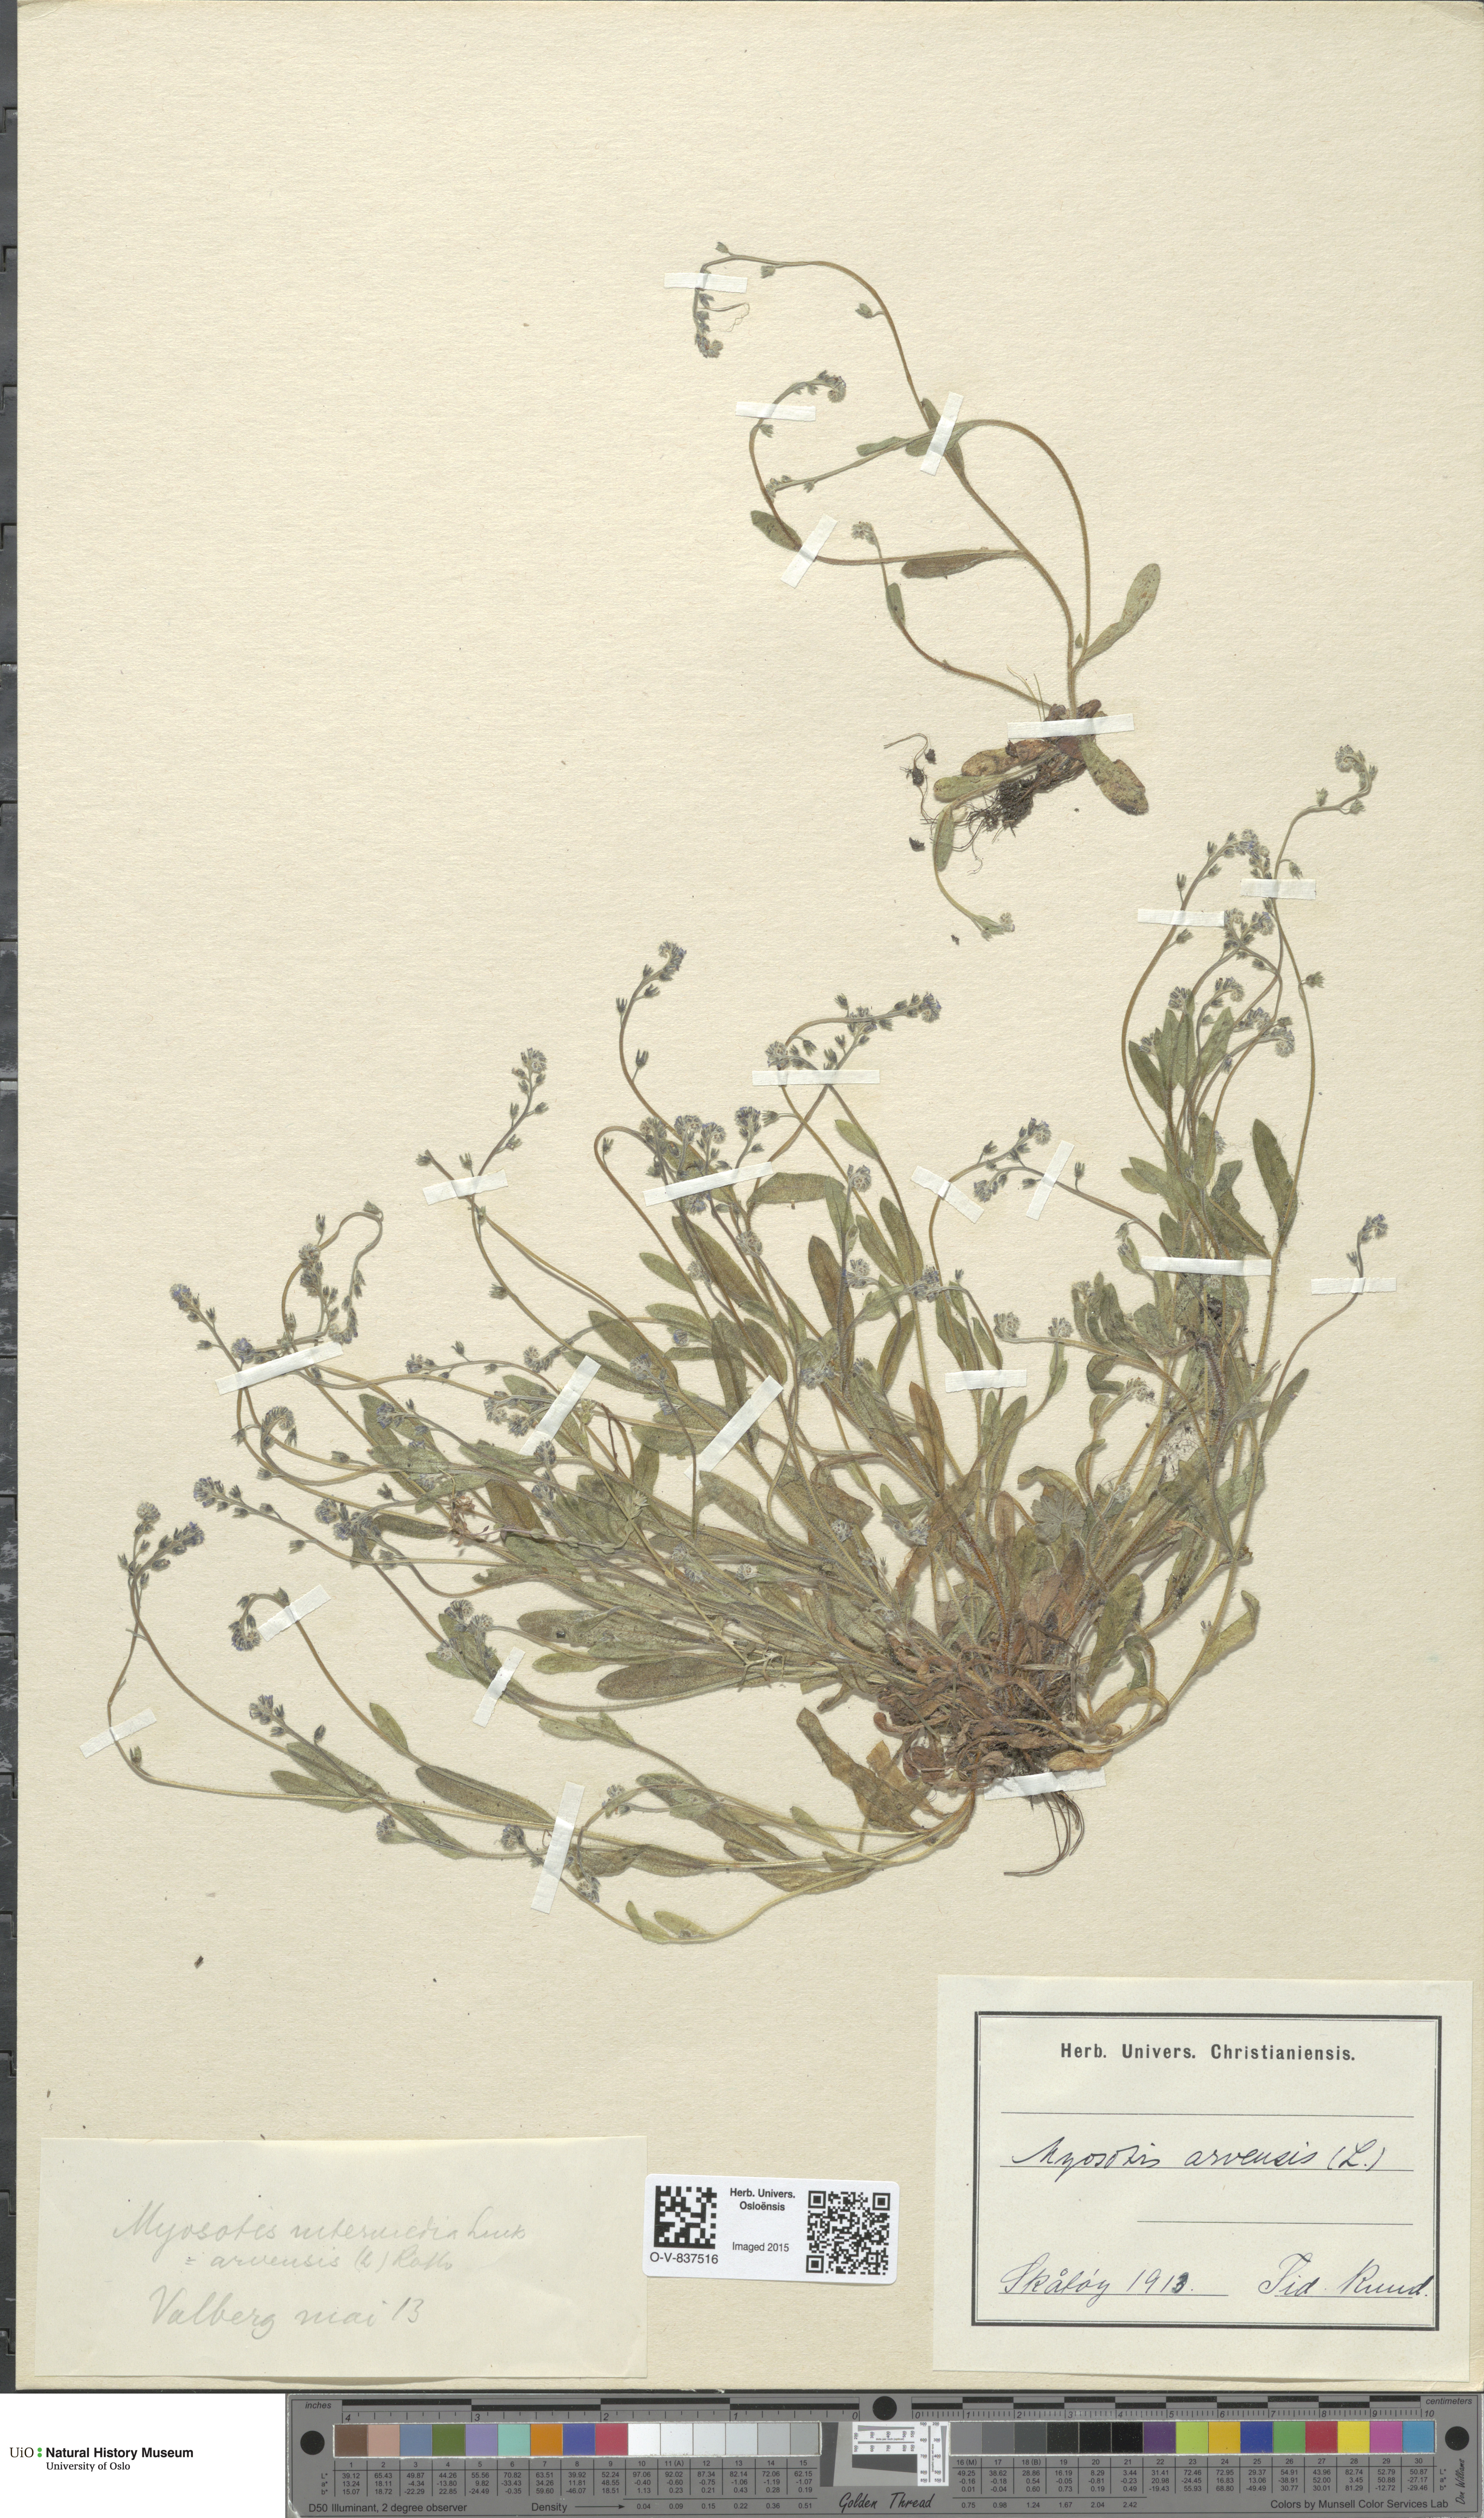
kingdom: Plantae
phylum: Tracheophyta
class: Magnoliopsida
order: Boraginales
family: Boraginaceae
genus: Myosotis
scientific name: Myosotis arvensis
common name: Field forget-me-not
